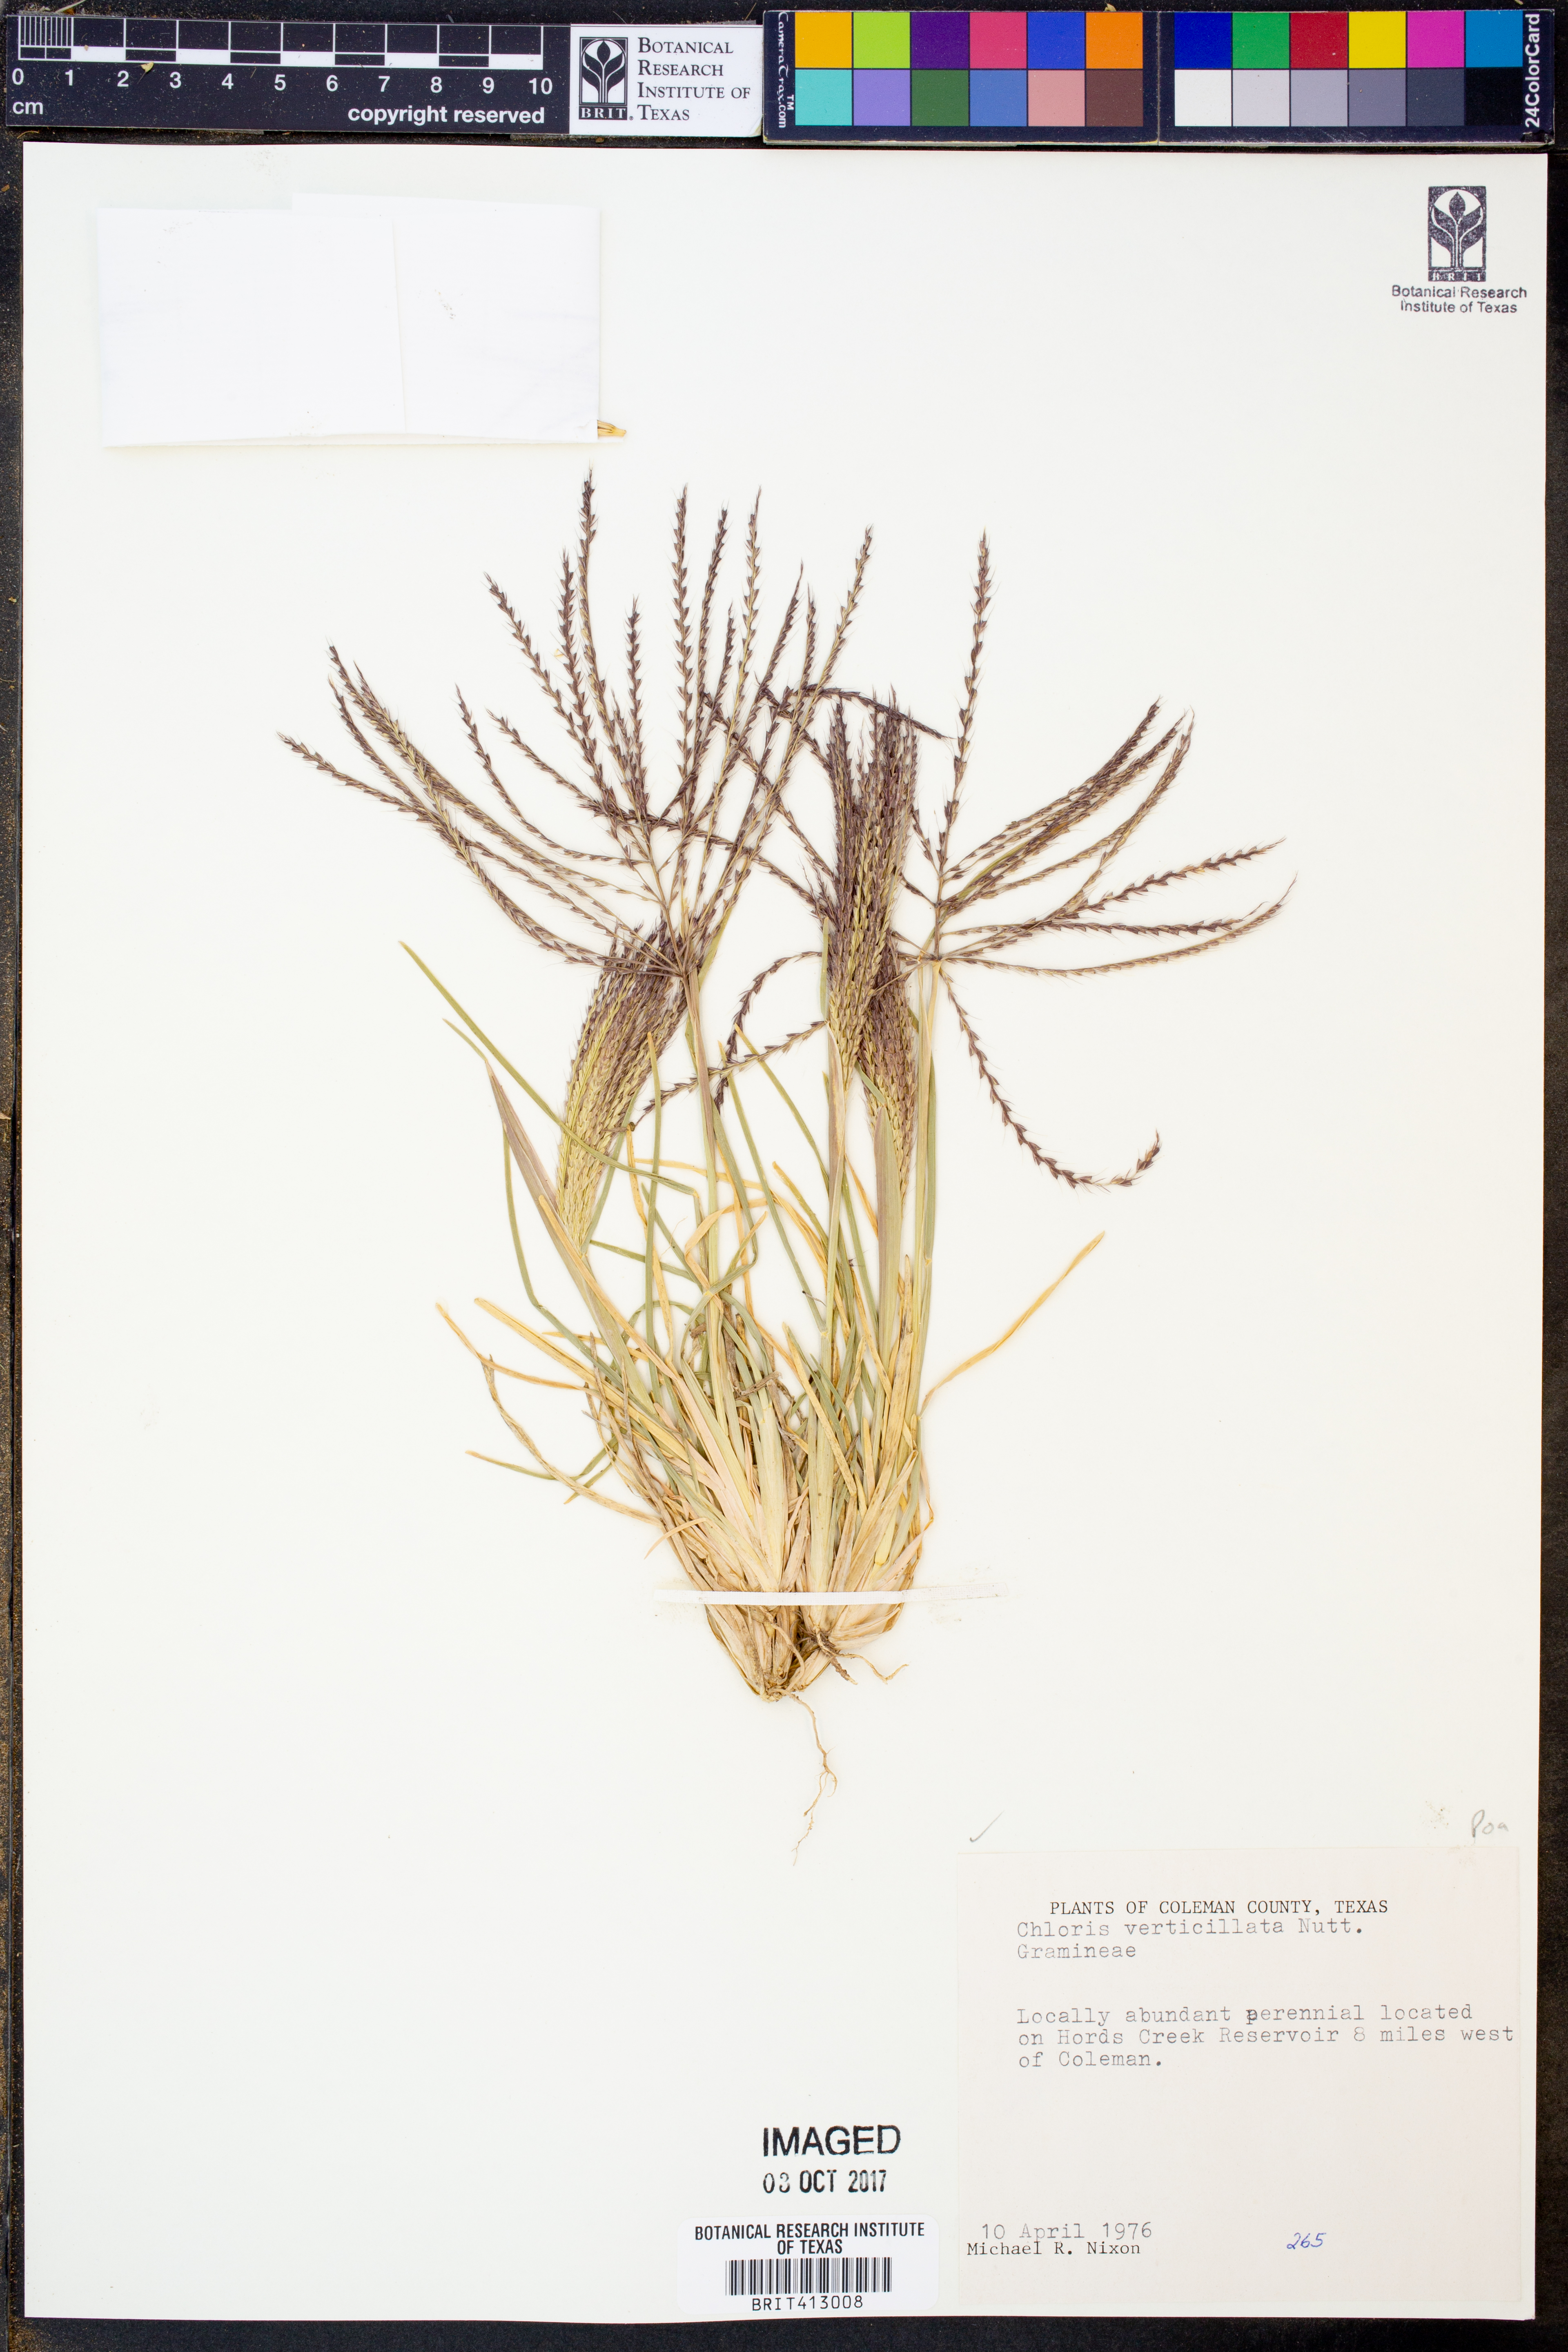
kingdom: Plantae
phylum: Tracheophyta
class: Liliopsida
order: Poales
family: Poaceae
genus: Chloris
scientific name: Chloris verticillata
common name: Tumble windmill grass
